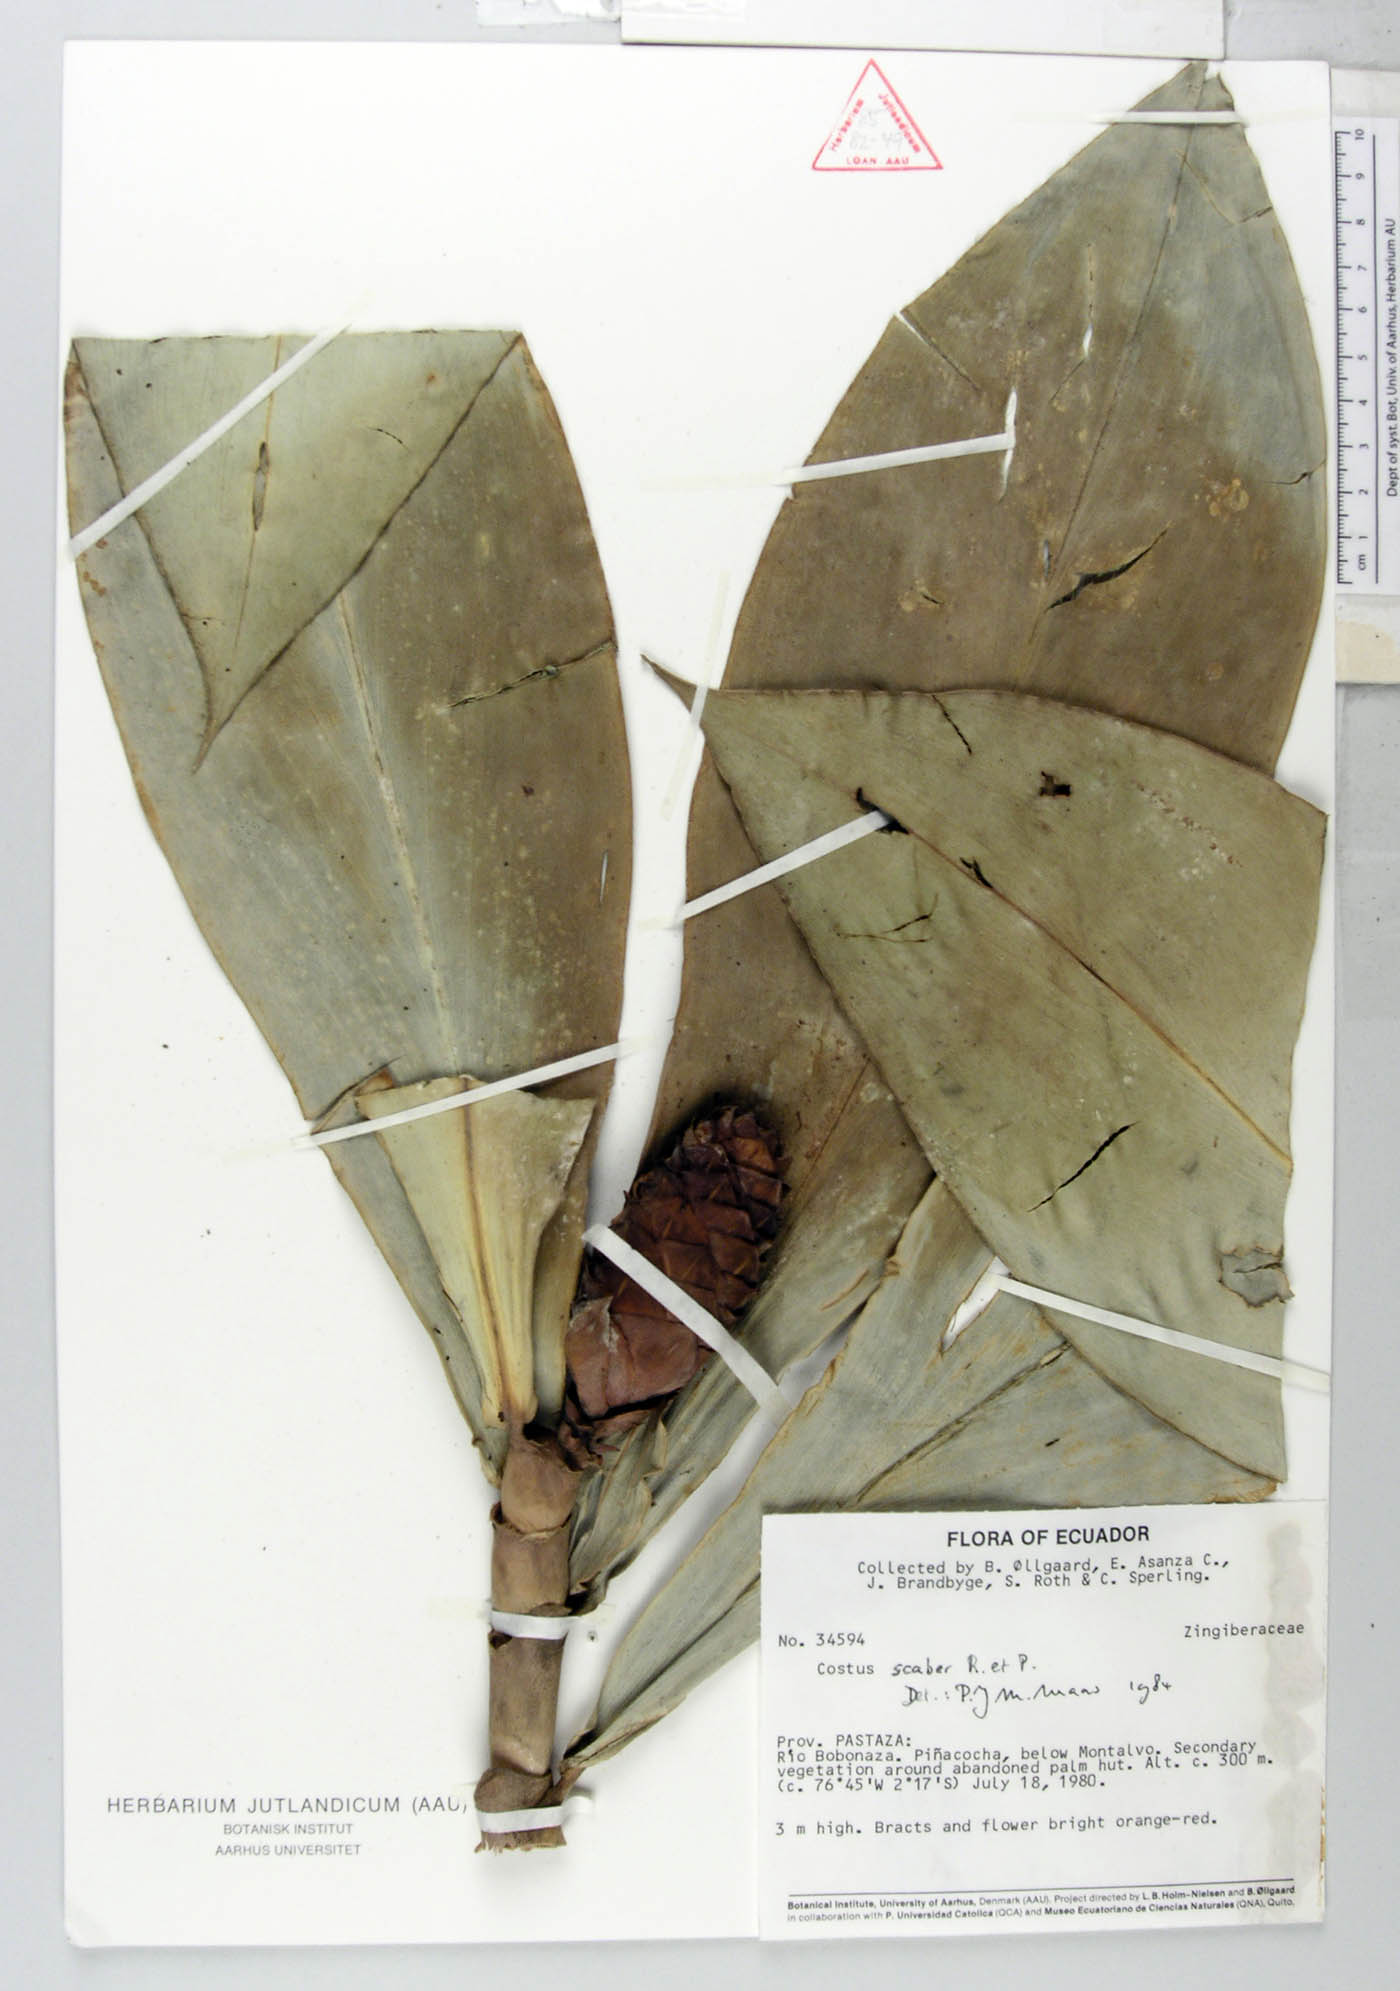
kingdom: Plantae
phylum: Tracheophyta
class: Liliopsida
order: Zingiberales
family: Costaceae
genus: Costus
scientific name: Costus scaber
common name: Spiral head ginger
